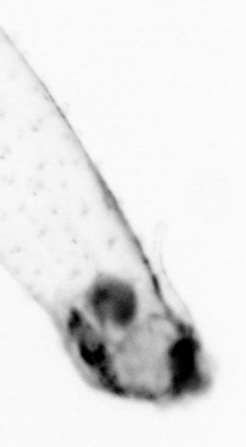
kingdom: Animalia
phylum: Chaetognatha
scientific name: Chaetognatha
